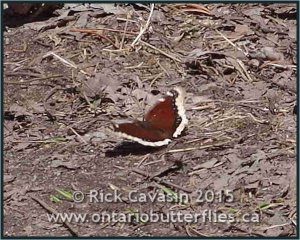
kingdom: Animalia
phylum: Arthropoda
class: Insecta
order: Lepidoptera
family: Nymphalidae
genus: Nymphalis
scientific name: Nymphalis antiopa
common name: Mourning Cloak
